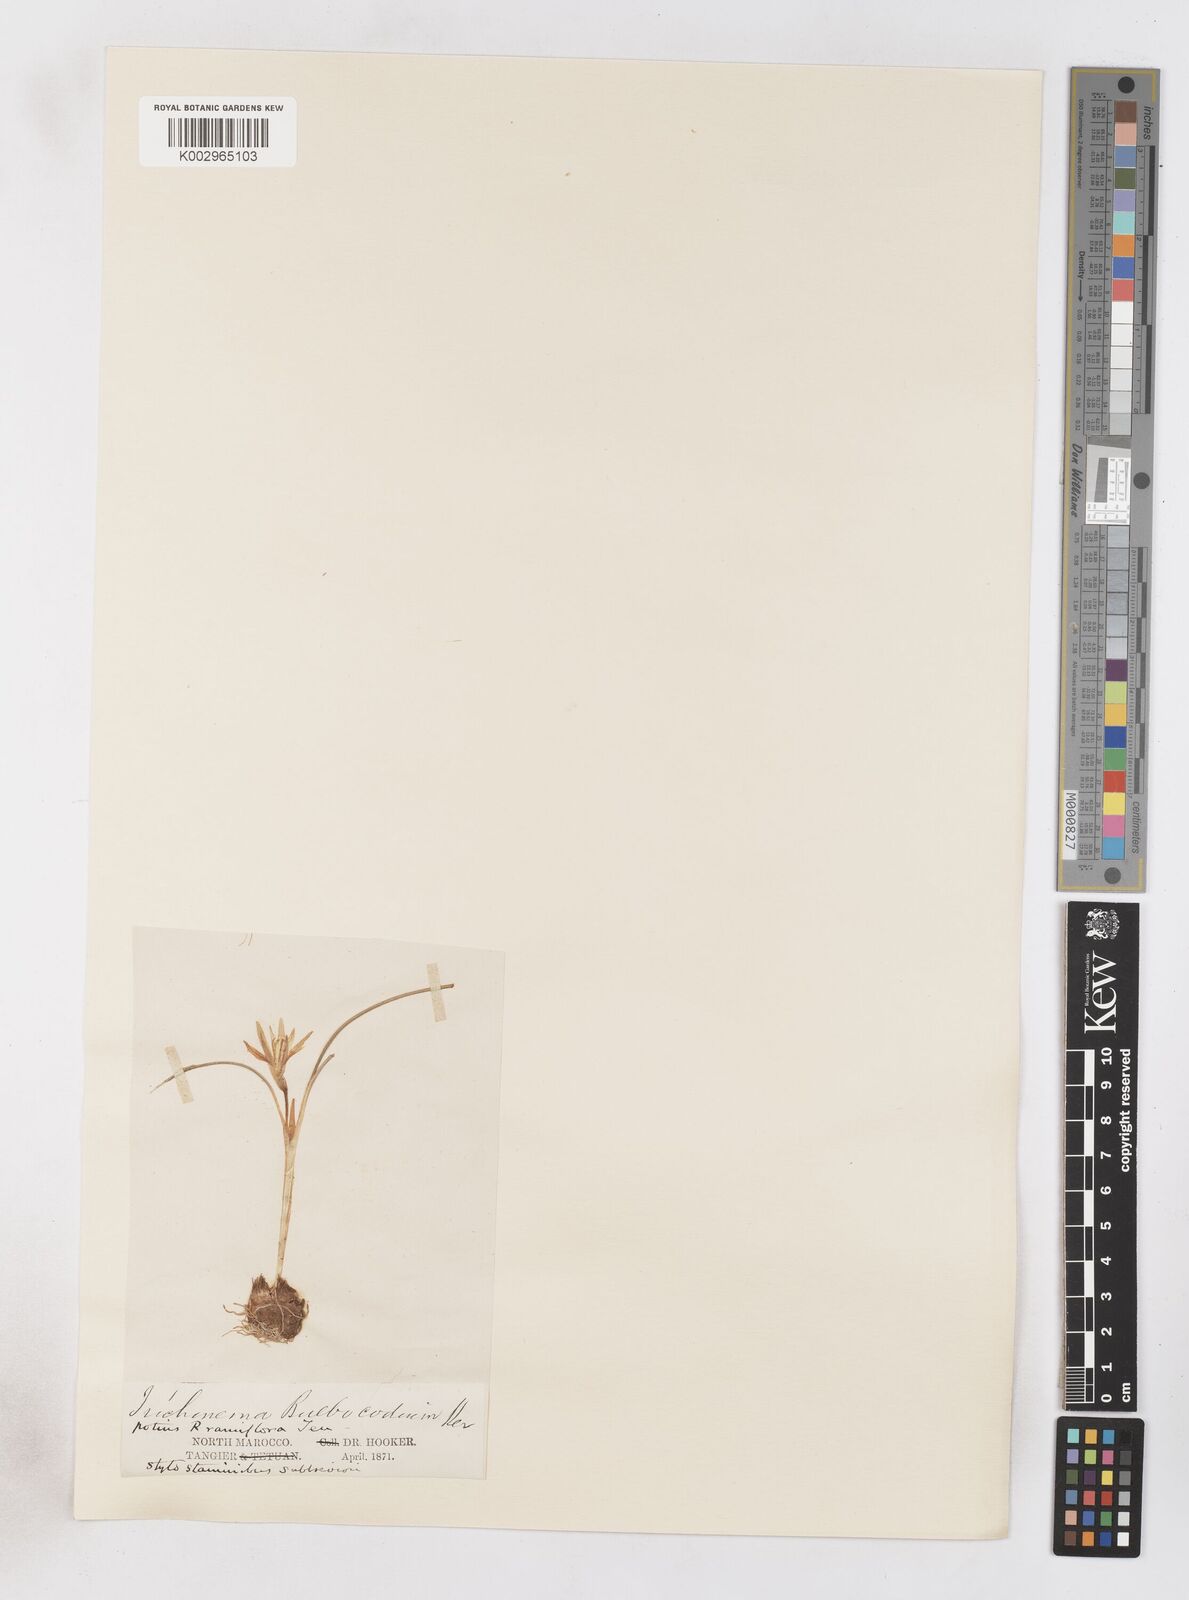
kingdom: Plantae
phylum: Tracheophyta
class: Liliopsida
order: Asparagales
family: Iridaceae
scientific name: Iridaceae
